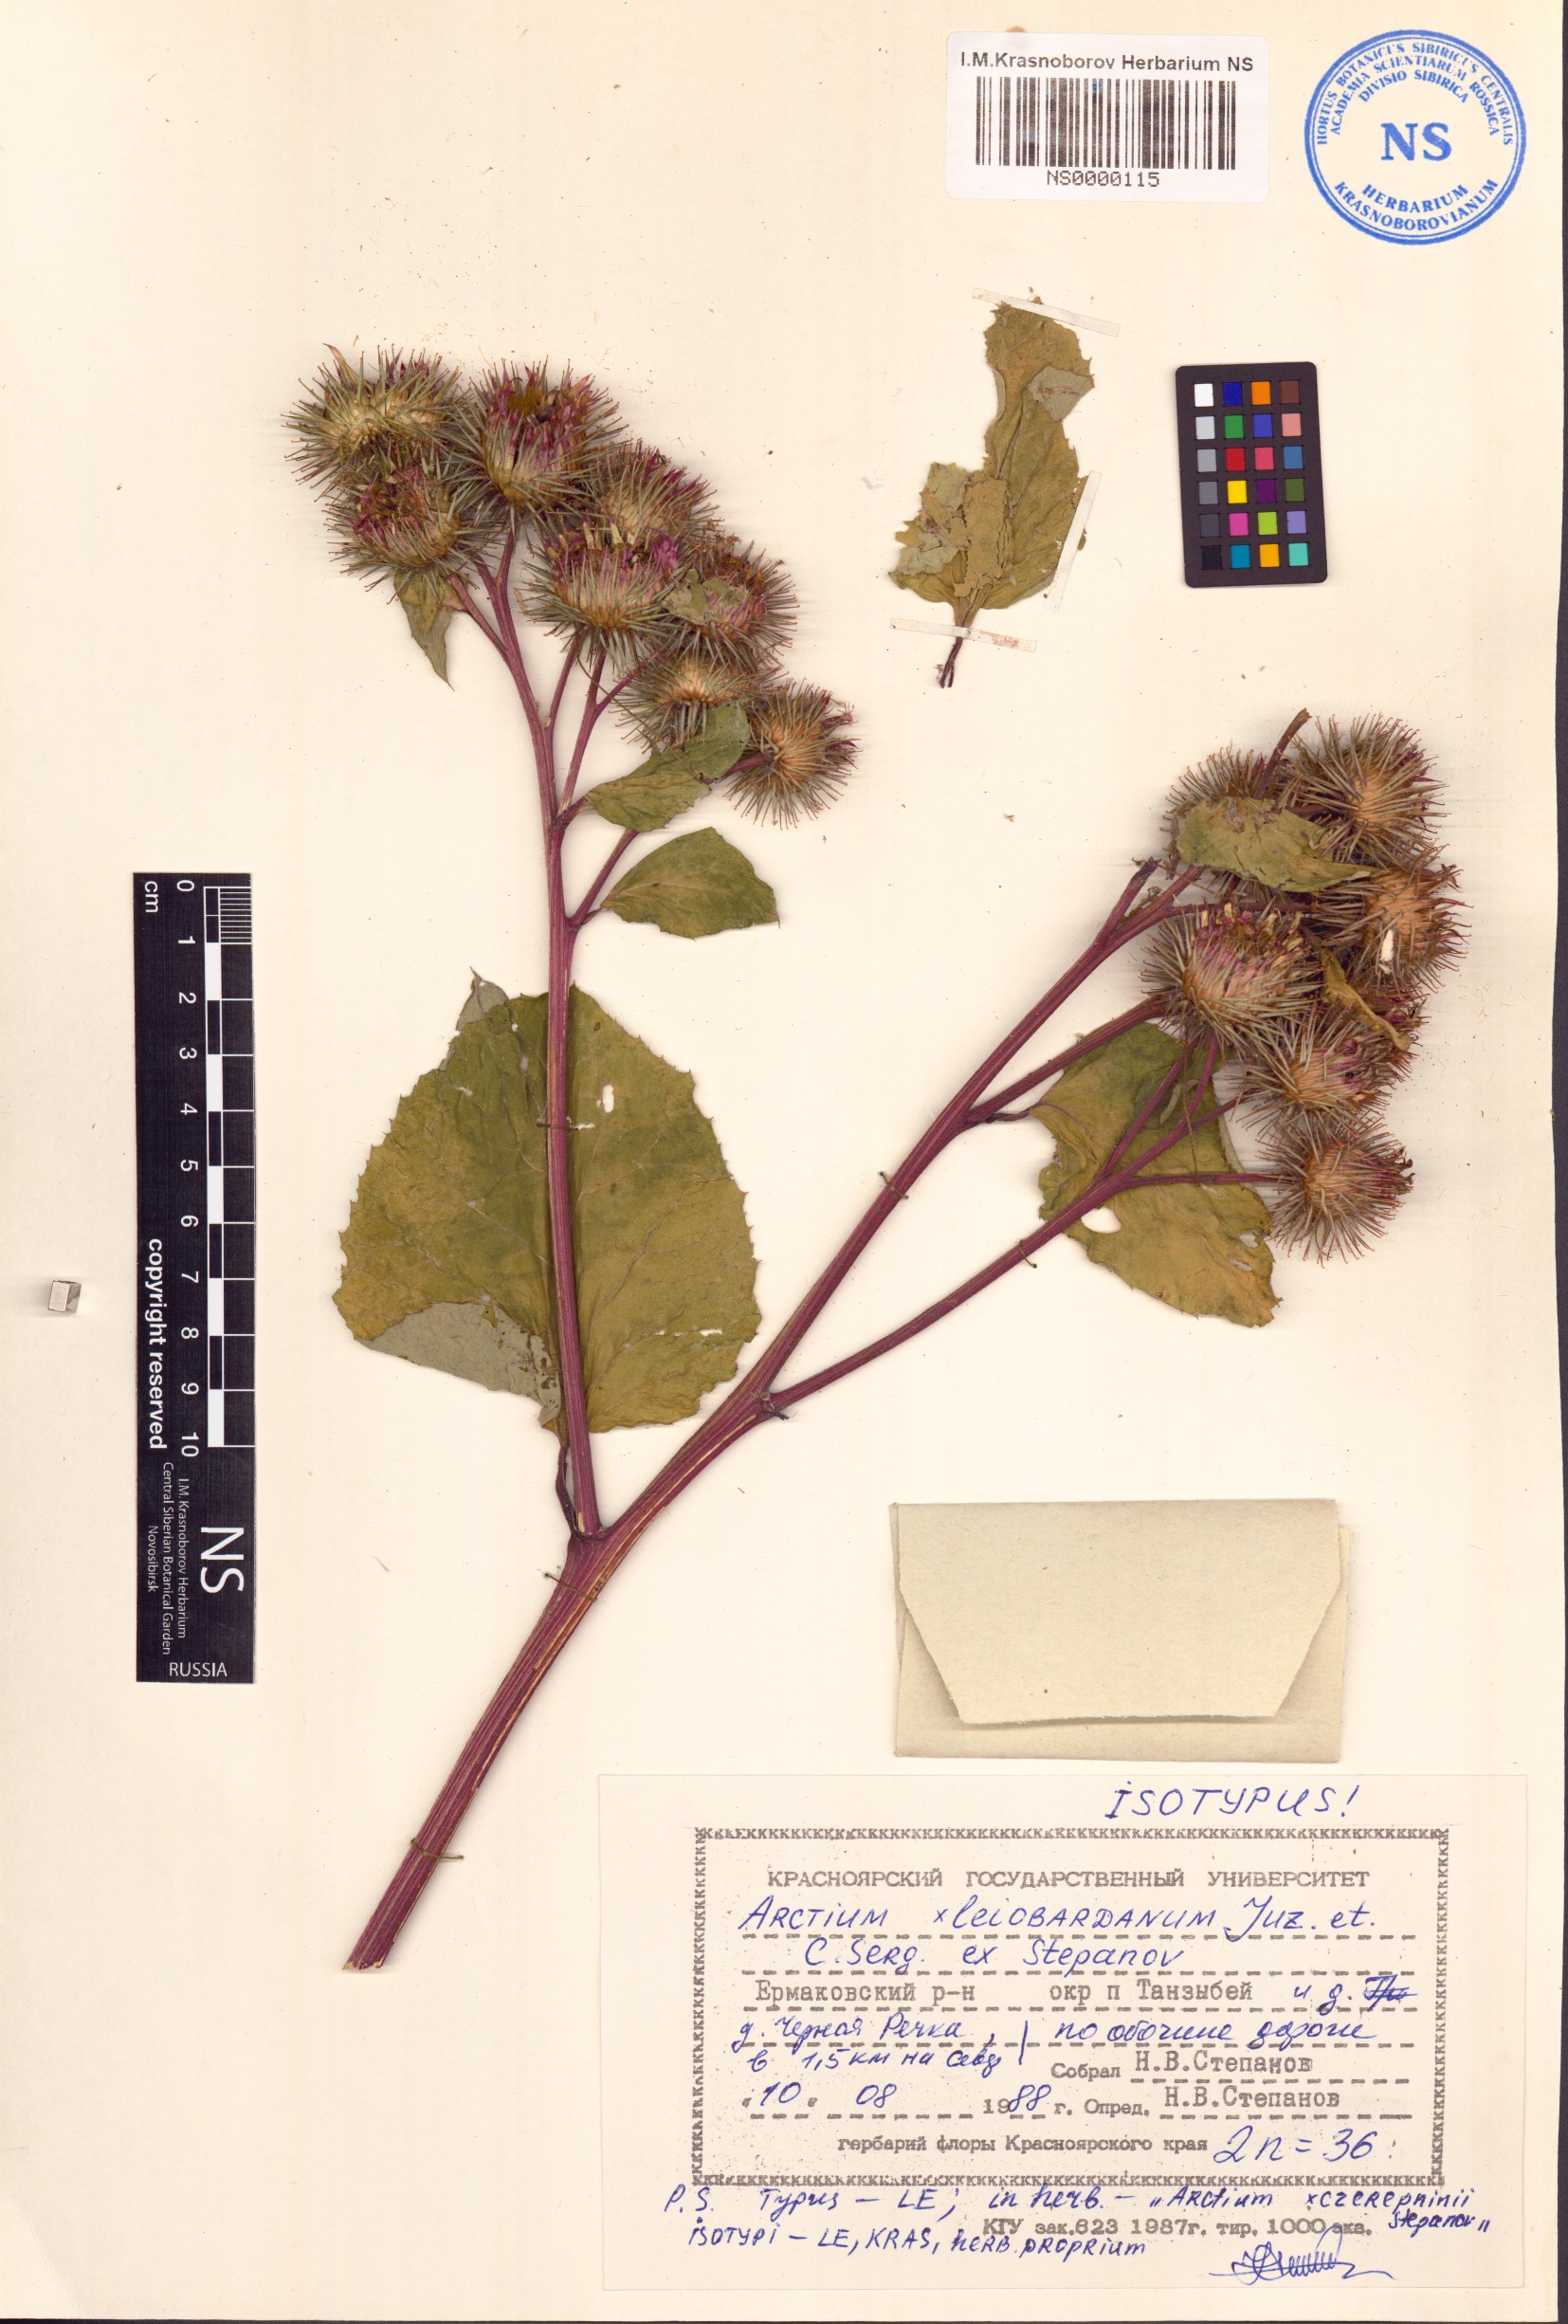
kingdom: Plantae
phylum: Tracheophyta
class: Magnoliopsida
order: Asterales
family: Asteraceae
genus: Arctium
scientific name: Arctium leiobardanum
